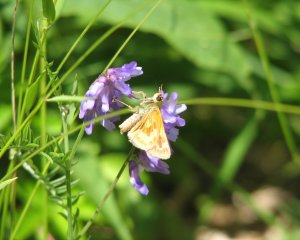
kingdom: Animalia
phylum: Arthropoda
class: Insecta
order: Lepidoptera
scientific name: Lepidoptera
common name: Butterflies
